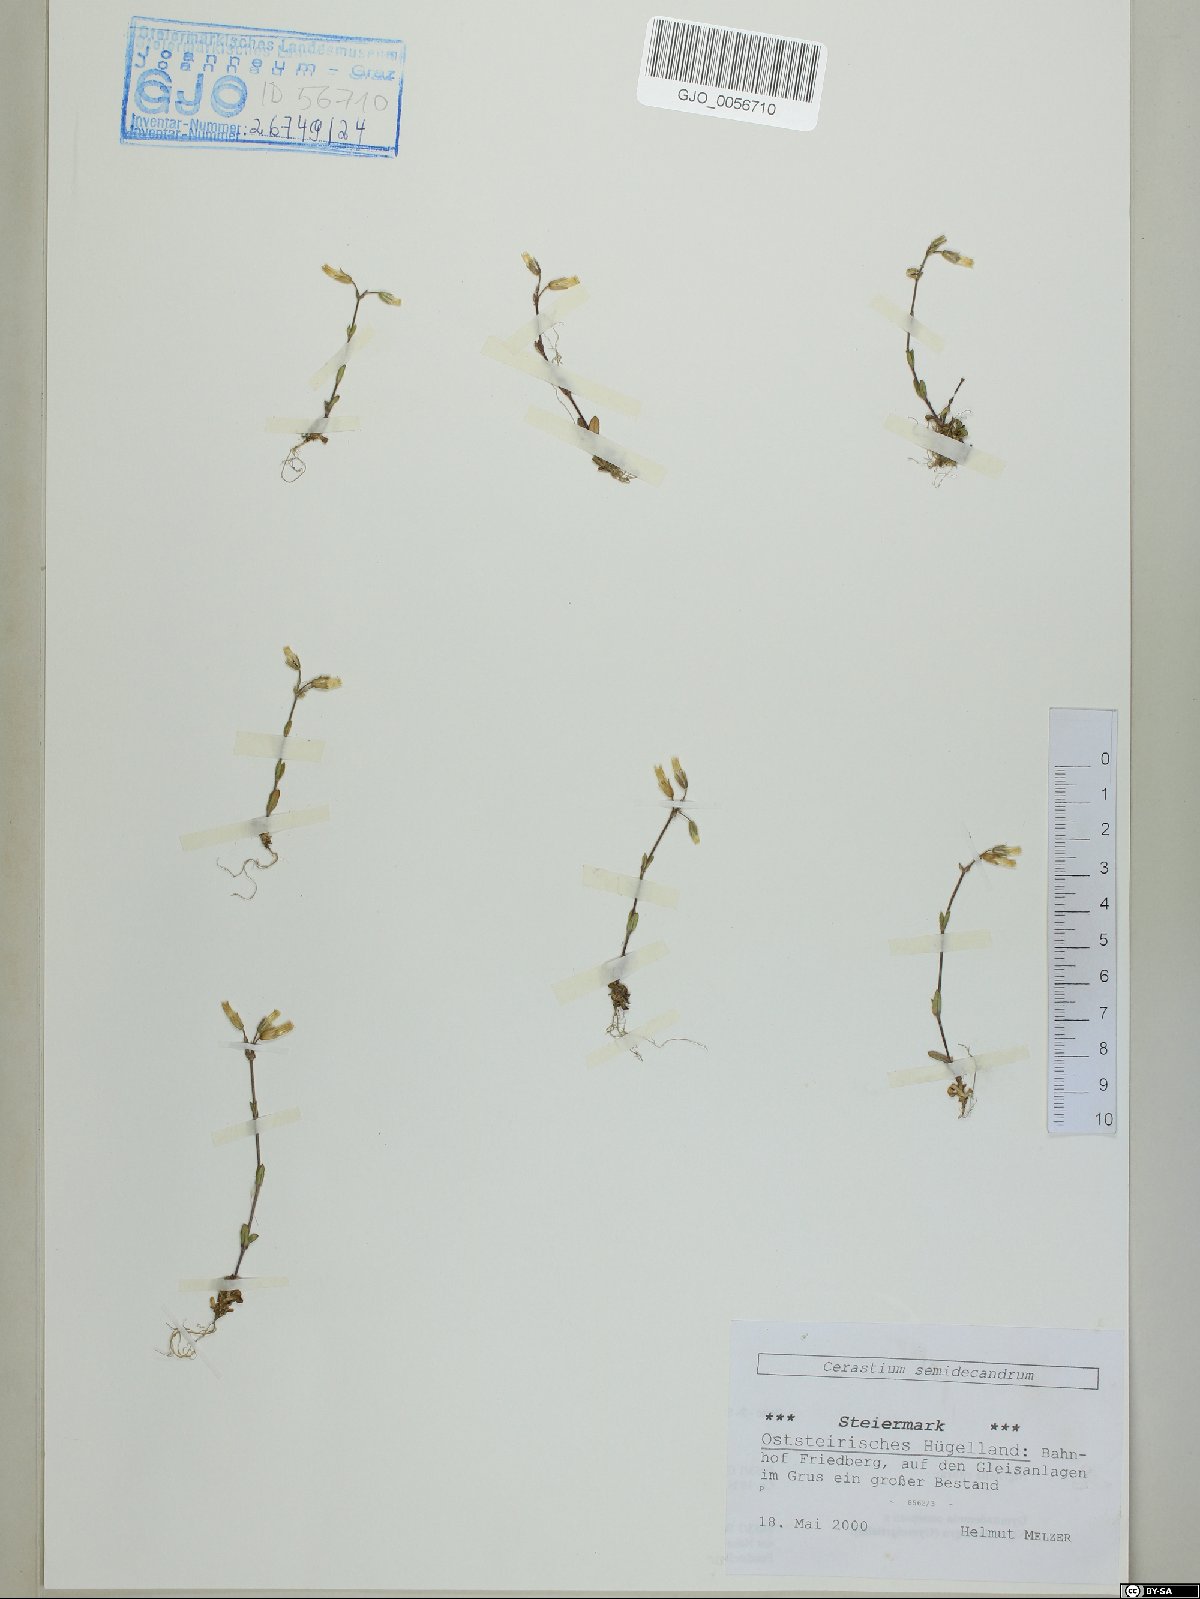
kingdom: Plantae
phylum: Tracheophyta
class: Magnoliopsida
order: Caryophyllales
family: Caryophyllaceae
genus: Cerastium
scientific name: Cerastium semidecandrum
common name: Little mouse-ear
